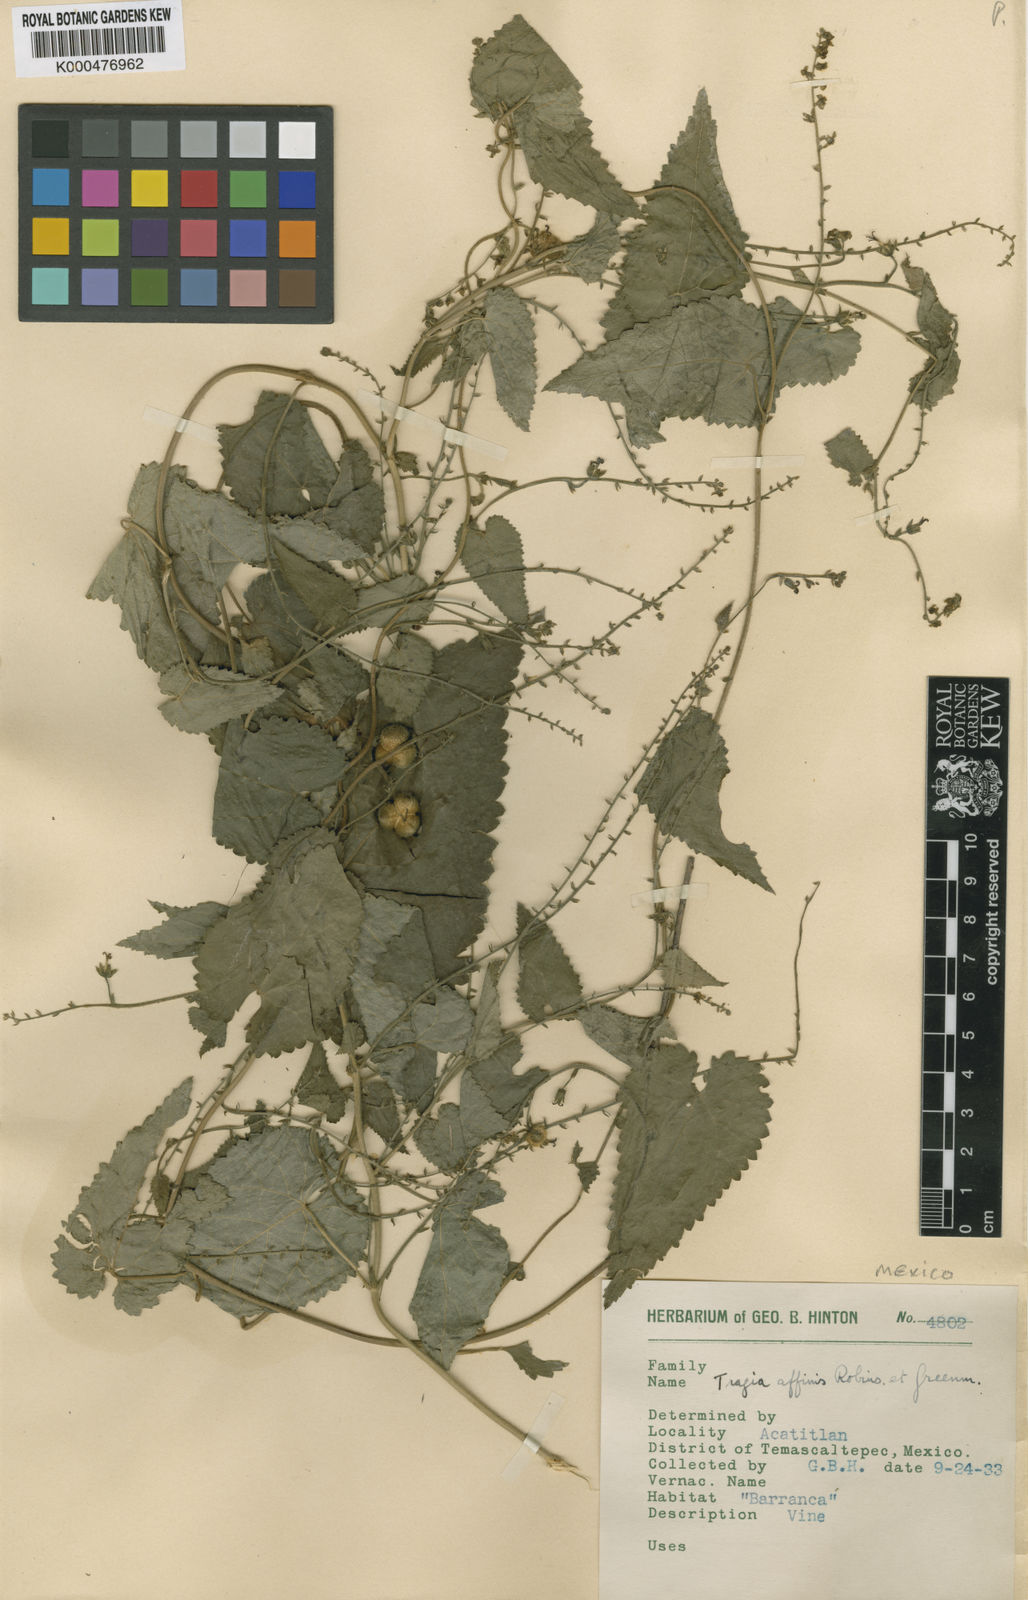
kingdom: Plantae
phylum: Tracheophyta
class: Magnoliopsida
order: Malpighiales
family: Euphorbiaceae
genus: Tragia
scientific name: Tragia affinis
